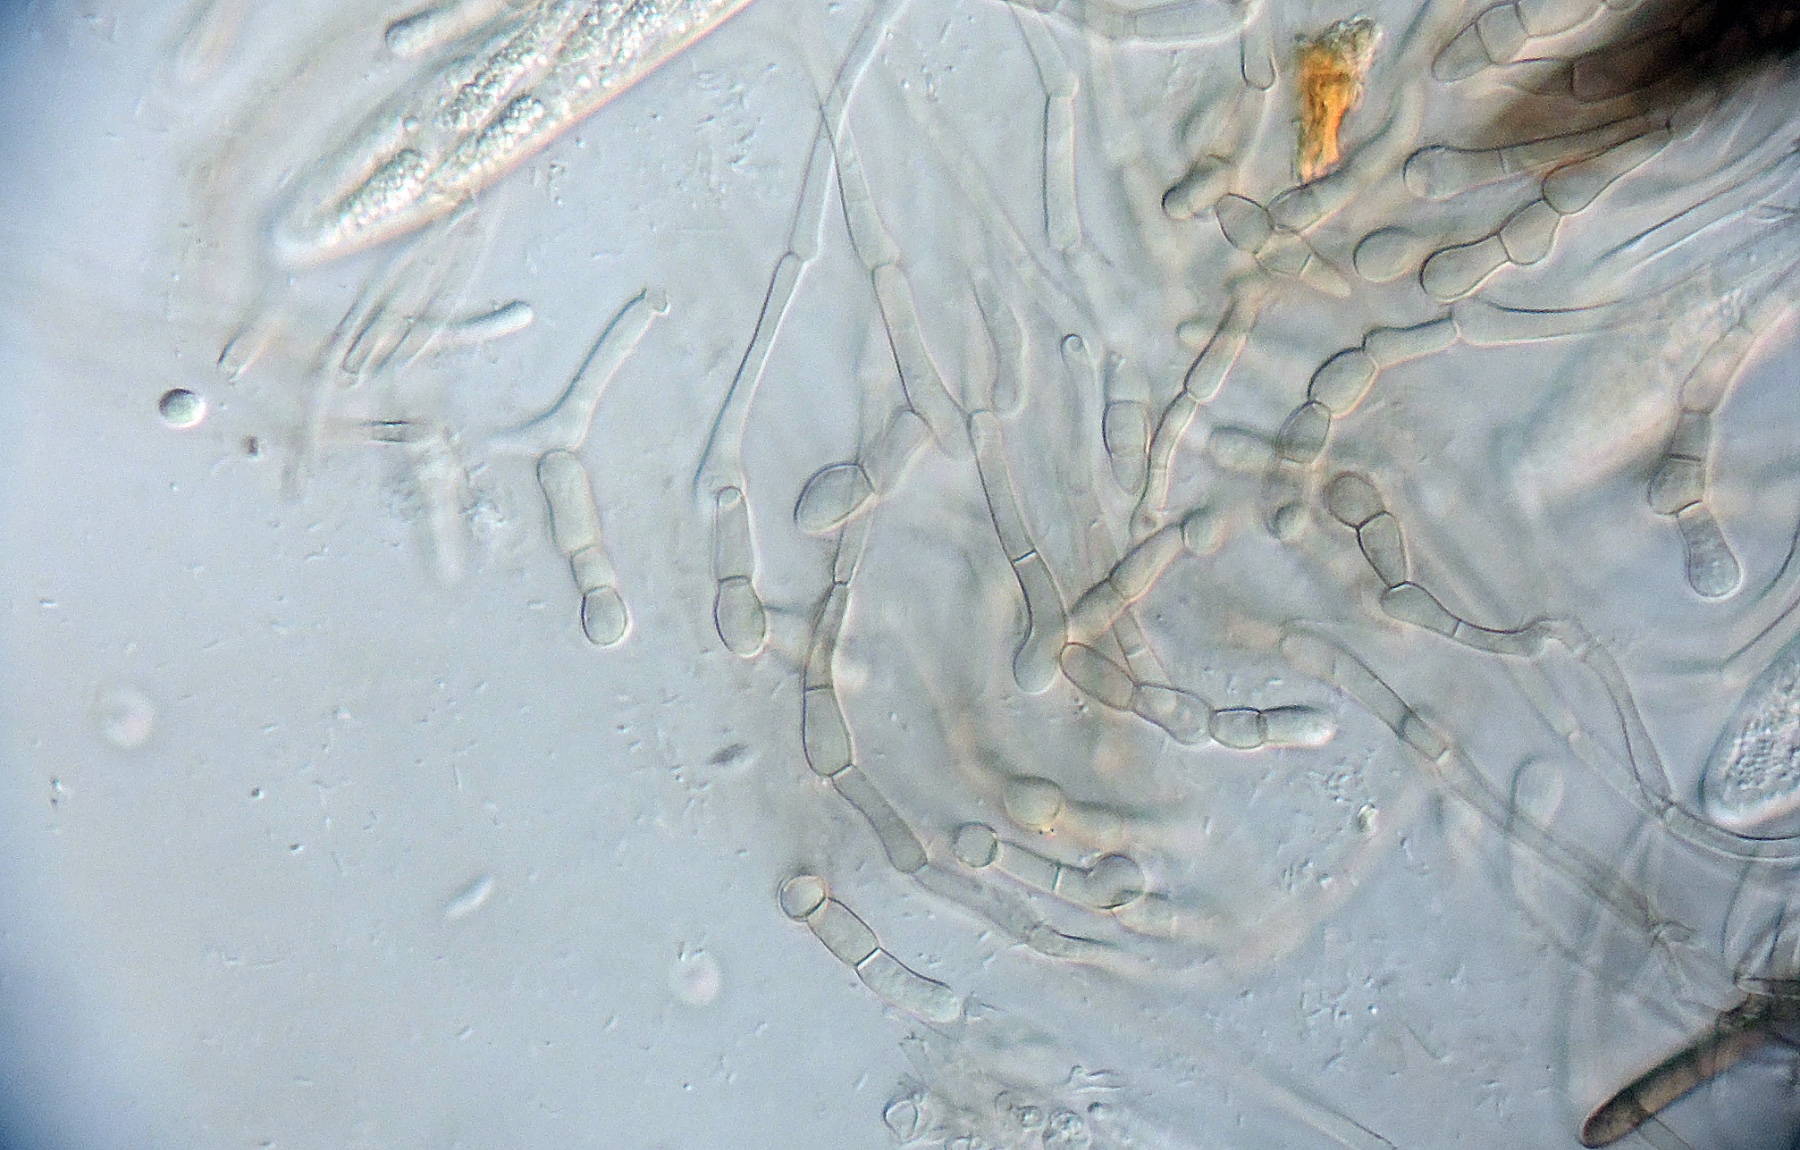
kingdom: Fungi
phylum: Ascomycota
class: Geoglossomycetes
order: Geoglossales
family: Geoglossaceae
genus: Geoglossum
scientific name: Geoglossum
